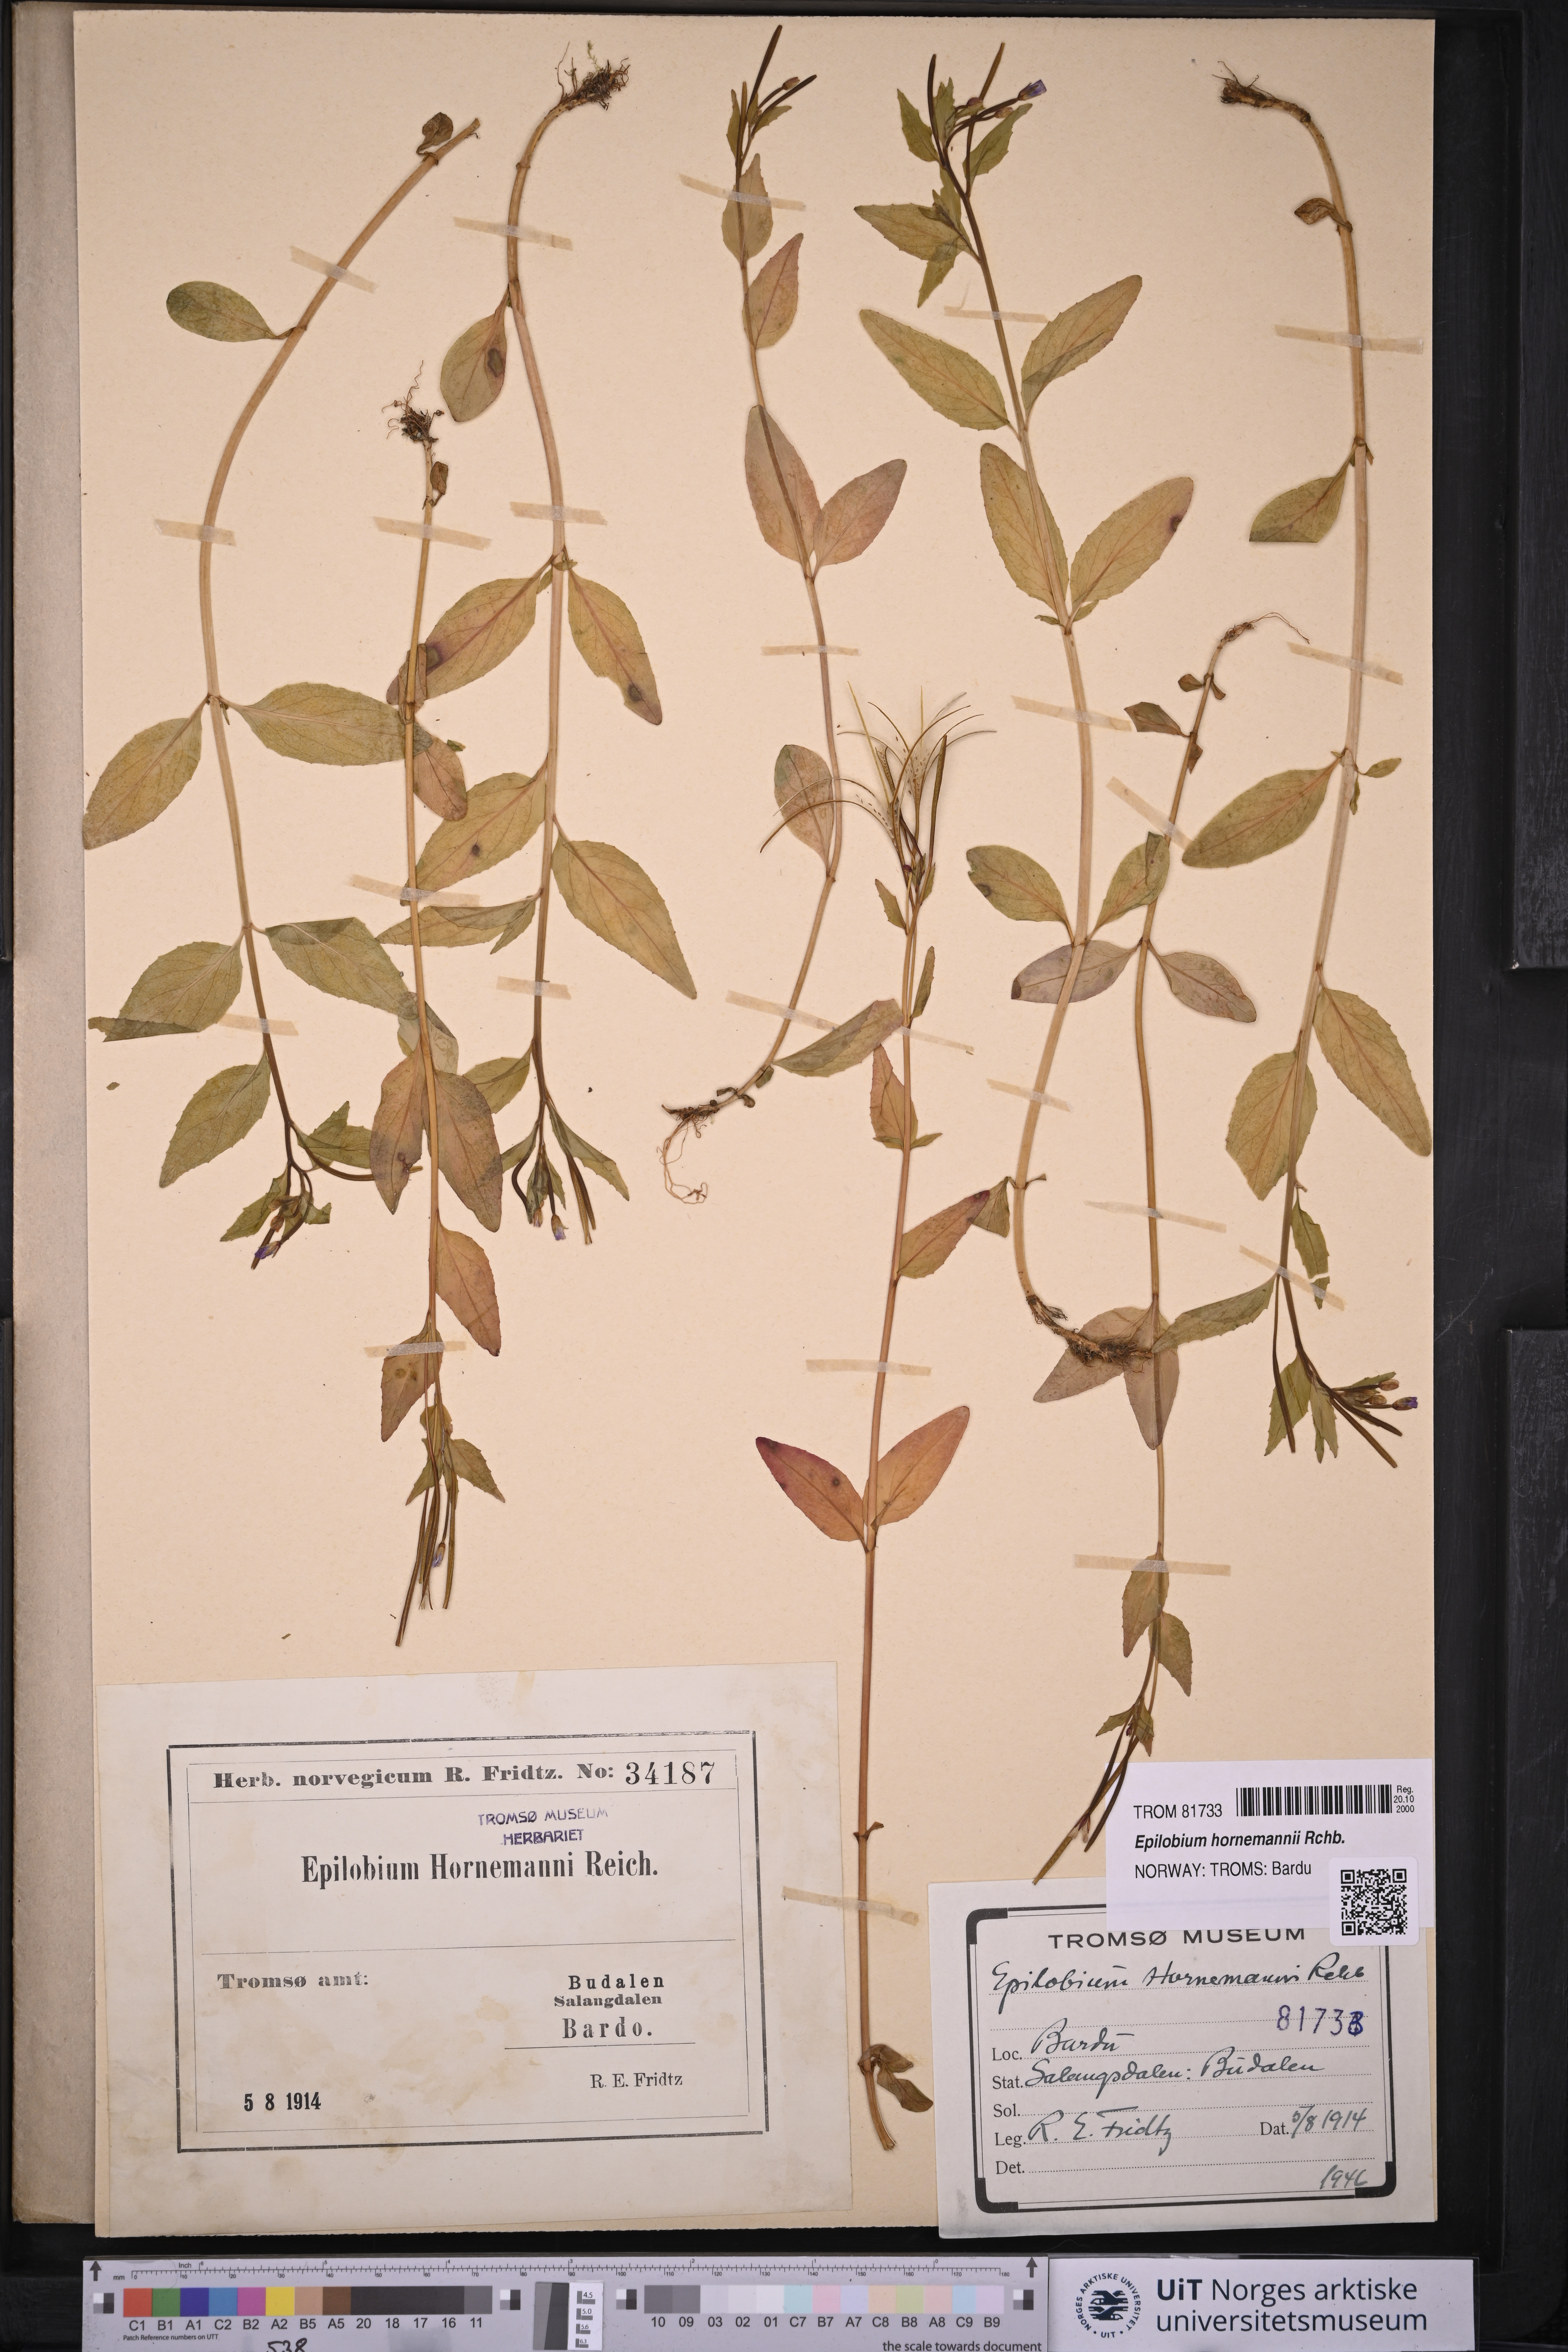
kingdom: Plantae
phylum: Tracheophyta
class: Magnoliopsida
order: Myrtales
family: Onagraceae
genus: Epilobium
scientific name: Epilobium hornemannii
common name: Hornemann's willowherb
